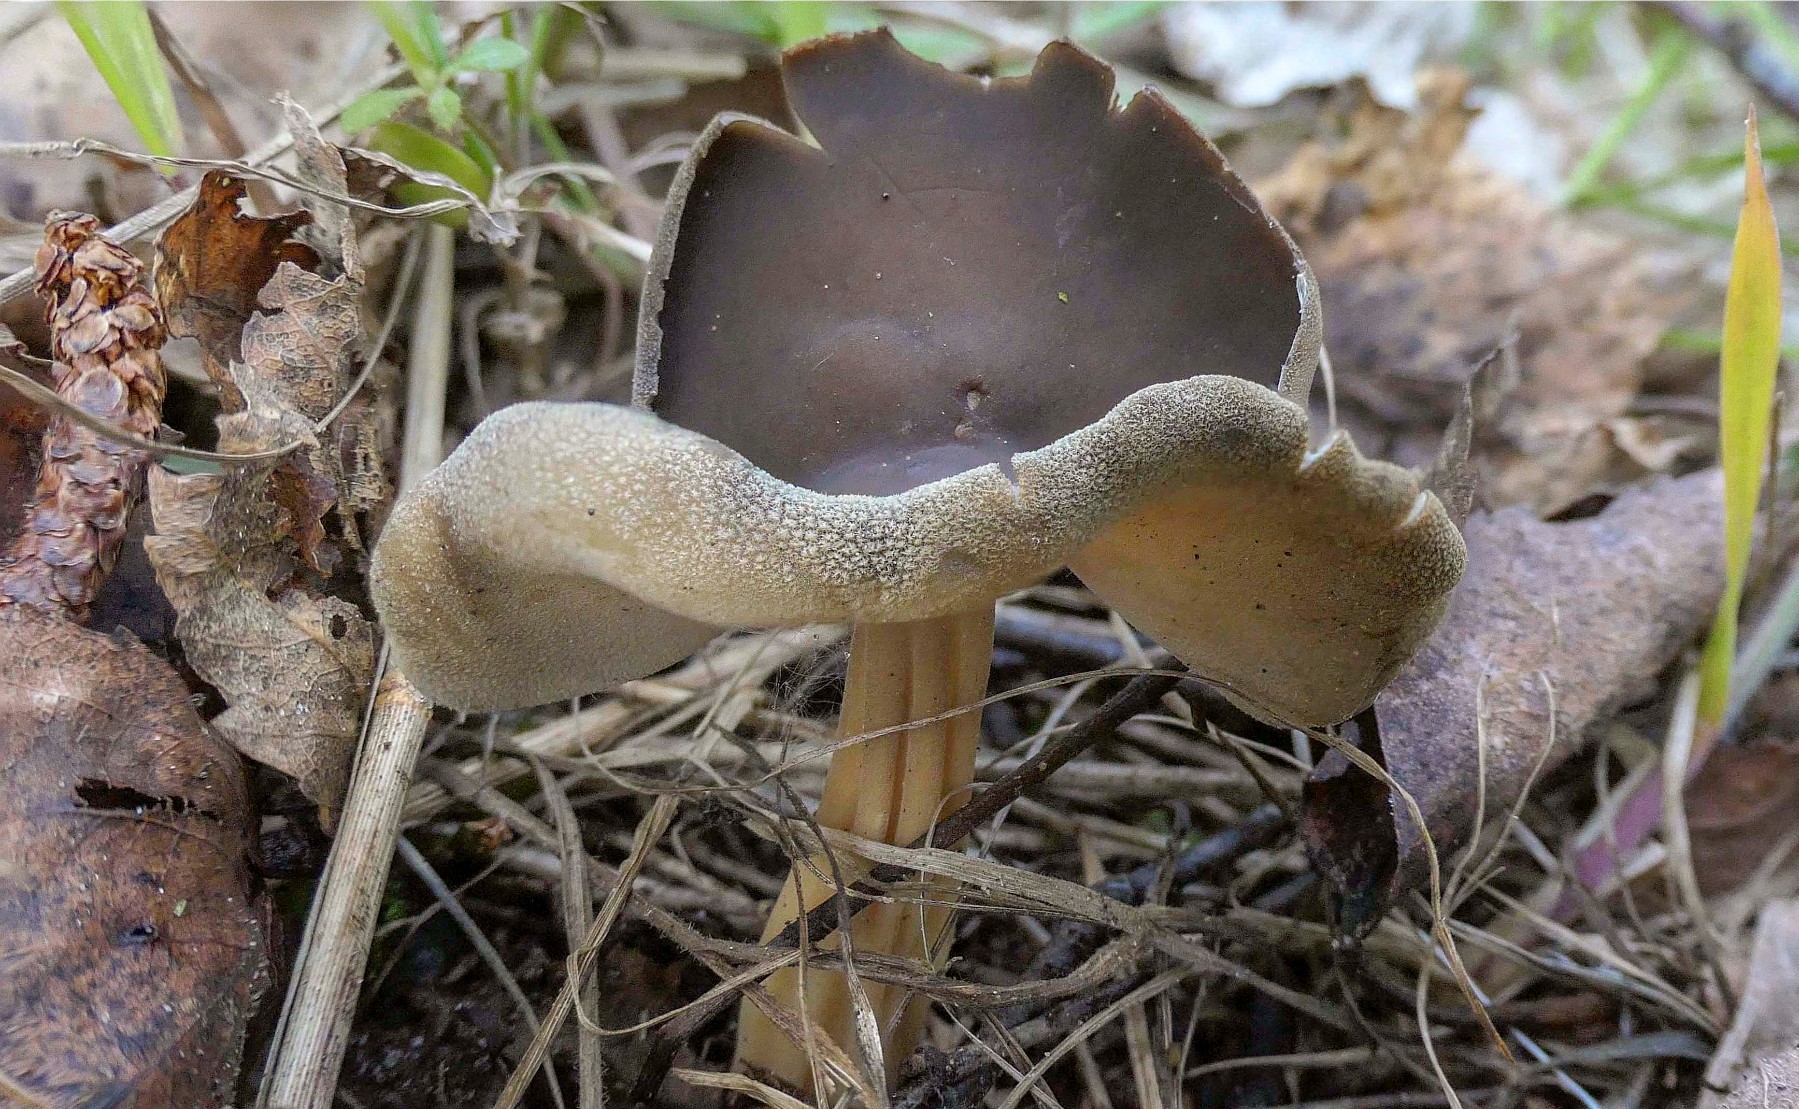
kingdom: Fungi
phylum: Ascomycota
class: Pezizomycetes
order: Pezizales
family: Helvellaceae
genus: Helvella
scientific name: Helvella solitaria
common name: Quélets foldhat
